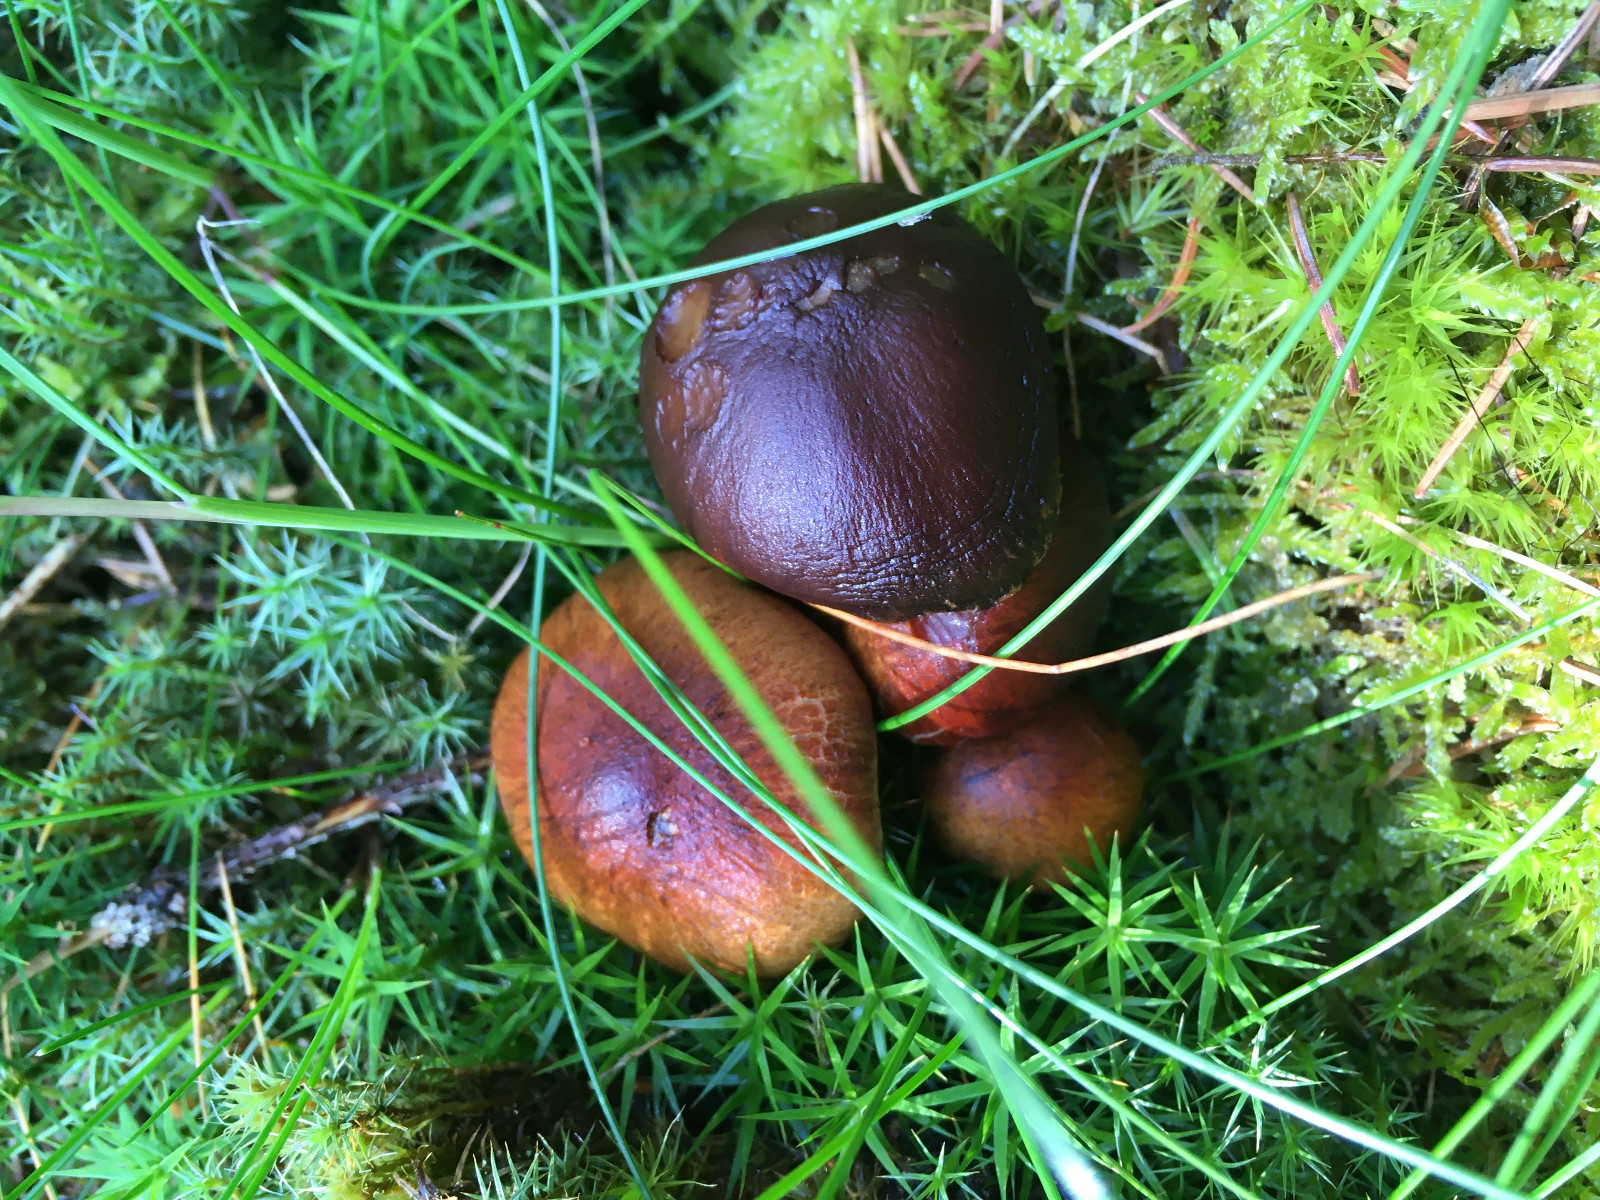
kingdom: Fungi
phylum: Basidiomycota
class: Agaricomycetes
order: Agaricales
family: Psathyrellaceae
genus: Psathyrella
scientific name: Psathyrella pertinax
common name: gran-mørkhat
